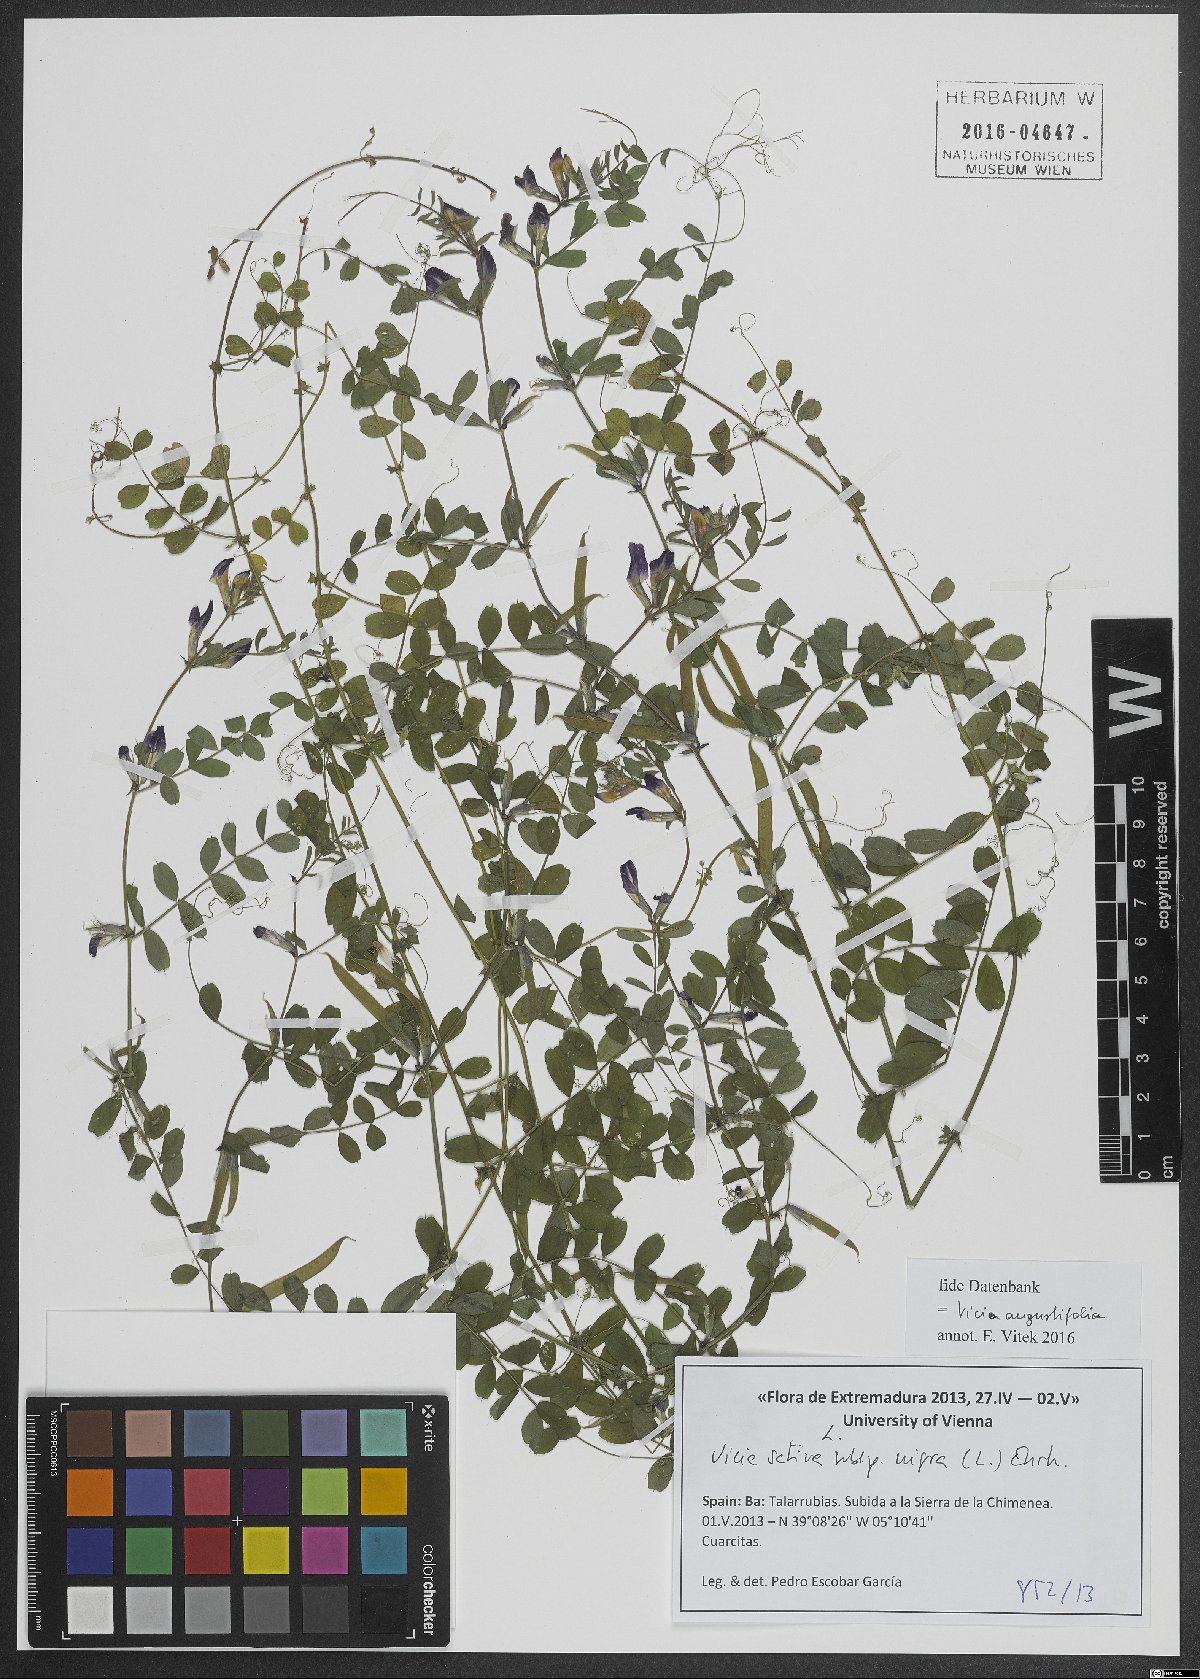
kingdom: Plantae
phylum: Tracheophyta
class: Magnoliopsida
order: Fabales
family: Fabaceae
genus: Vicia
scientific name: Vicia sativa
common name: Garden vetch
